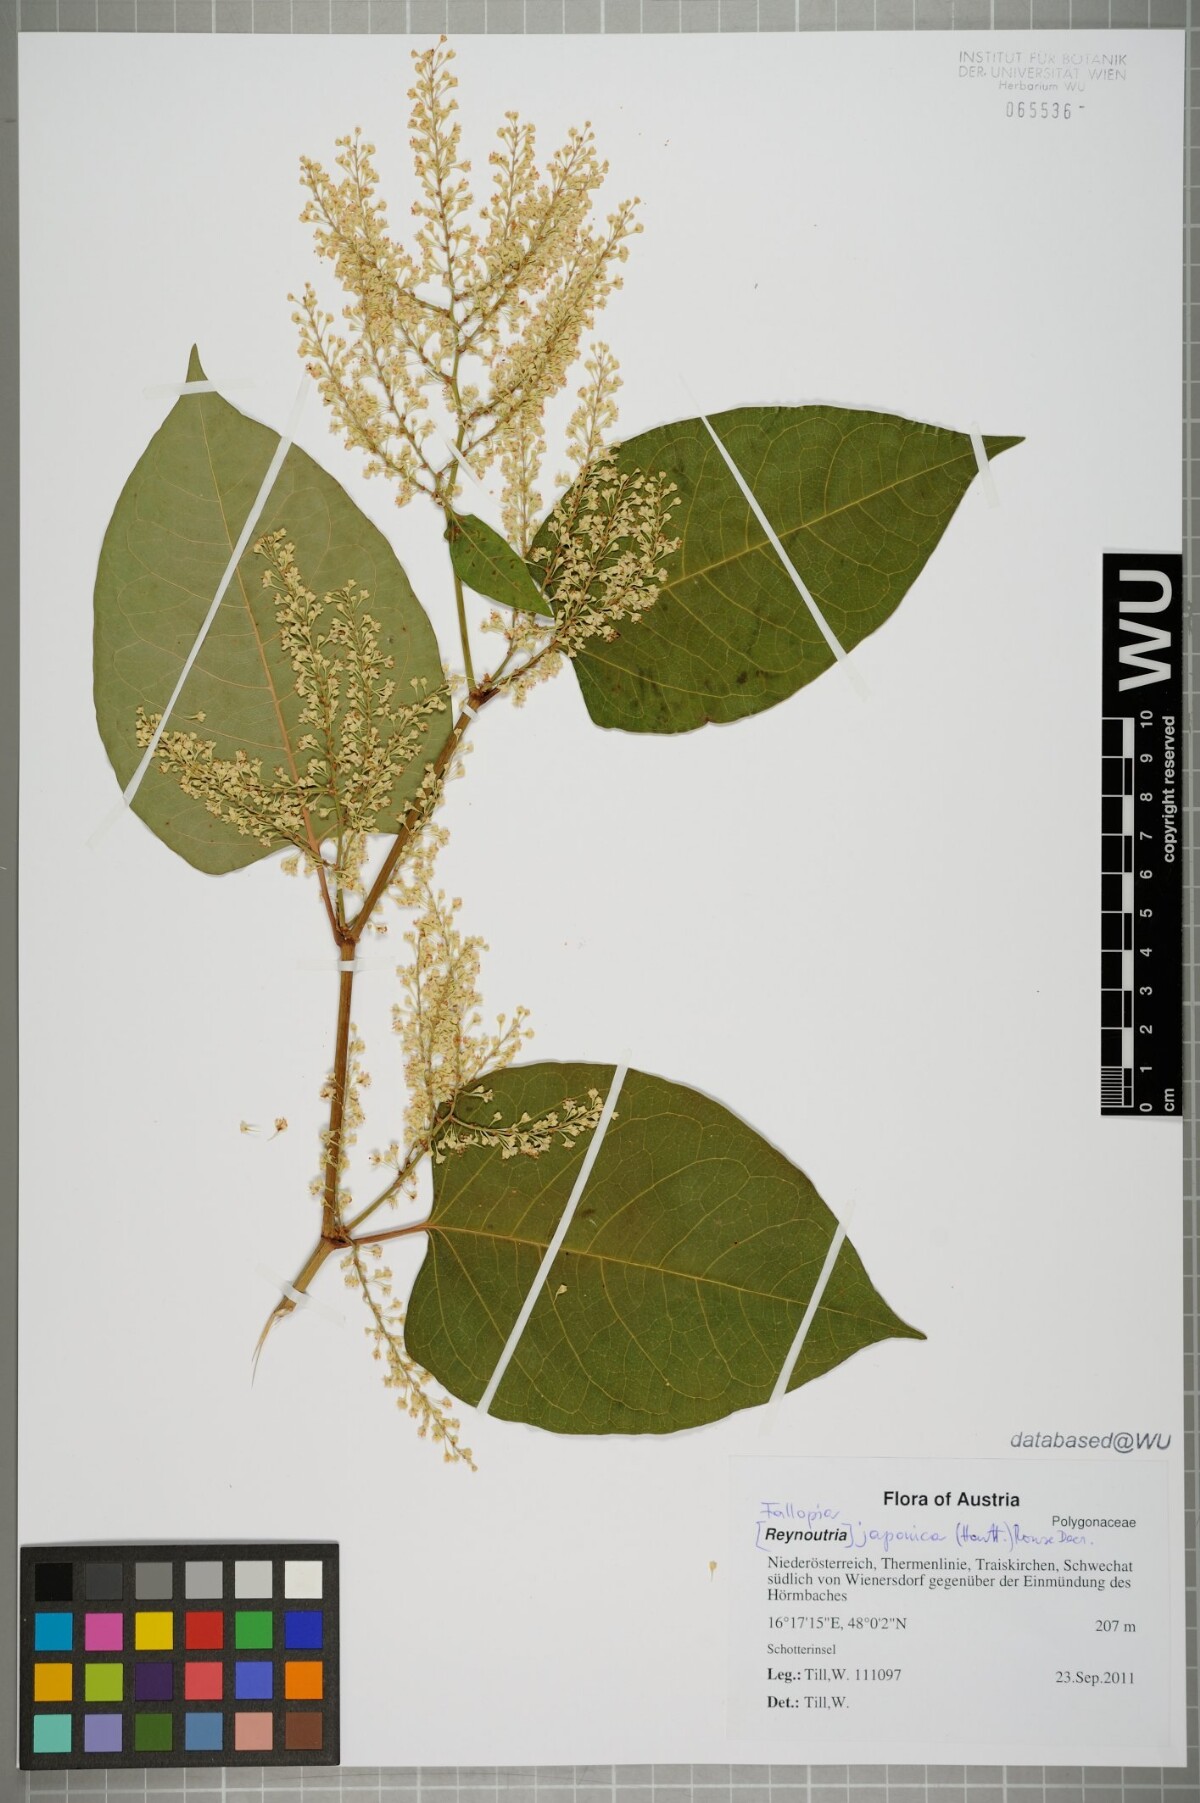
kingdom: Plantae
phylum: Tracheophyta
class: Magnoliopsida
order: Caryophyllales
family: Polygonaceae
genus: Reynoutria
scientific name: Reynoutria bohemica
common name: Bohemian knotweed
